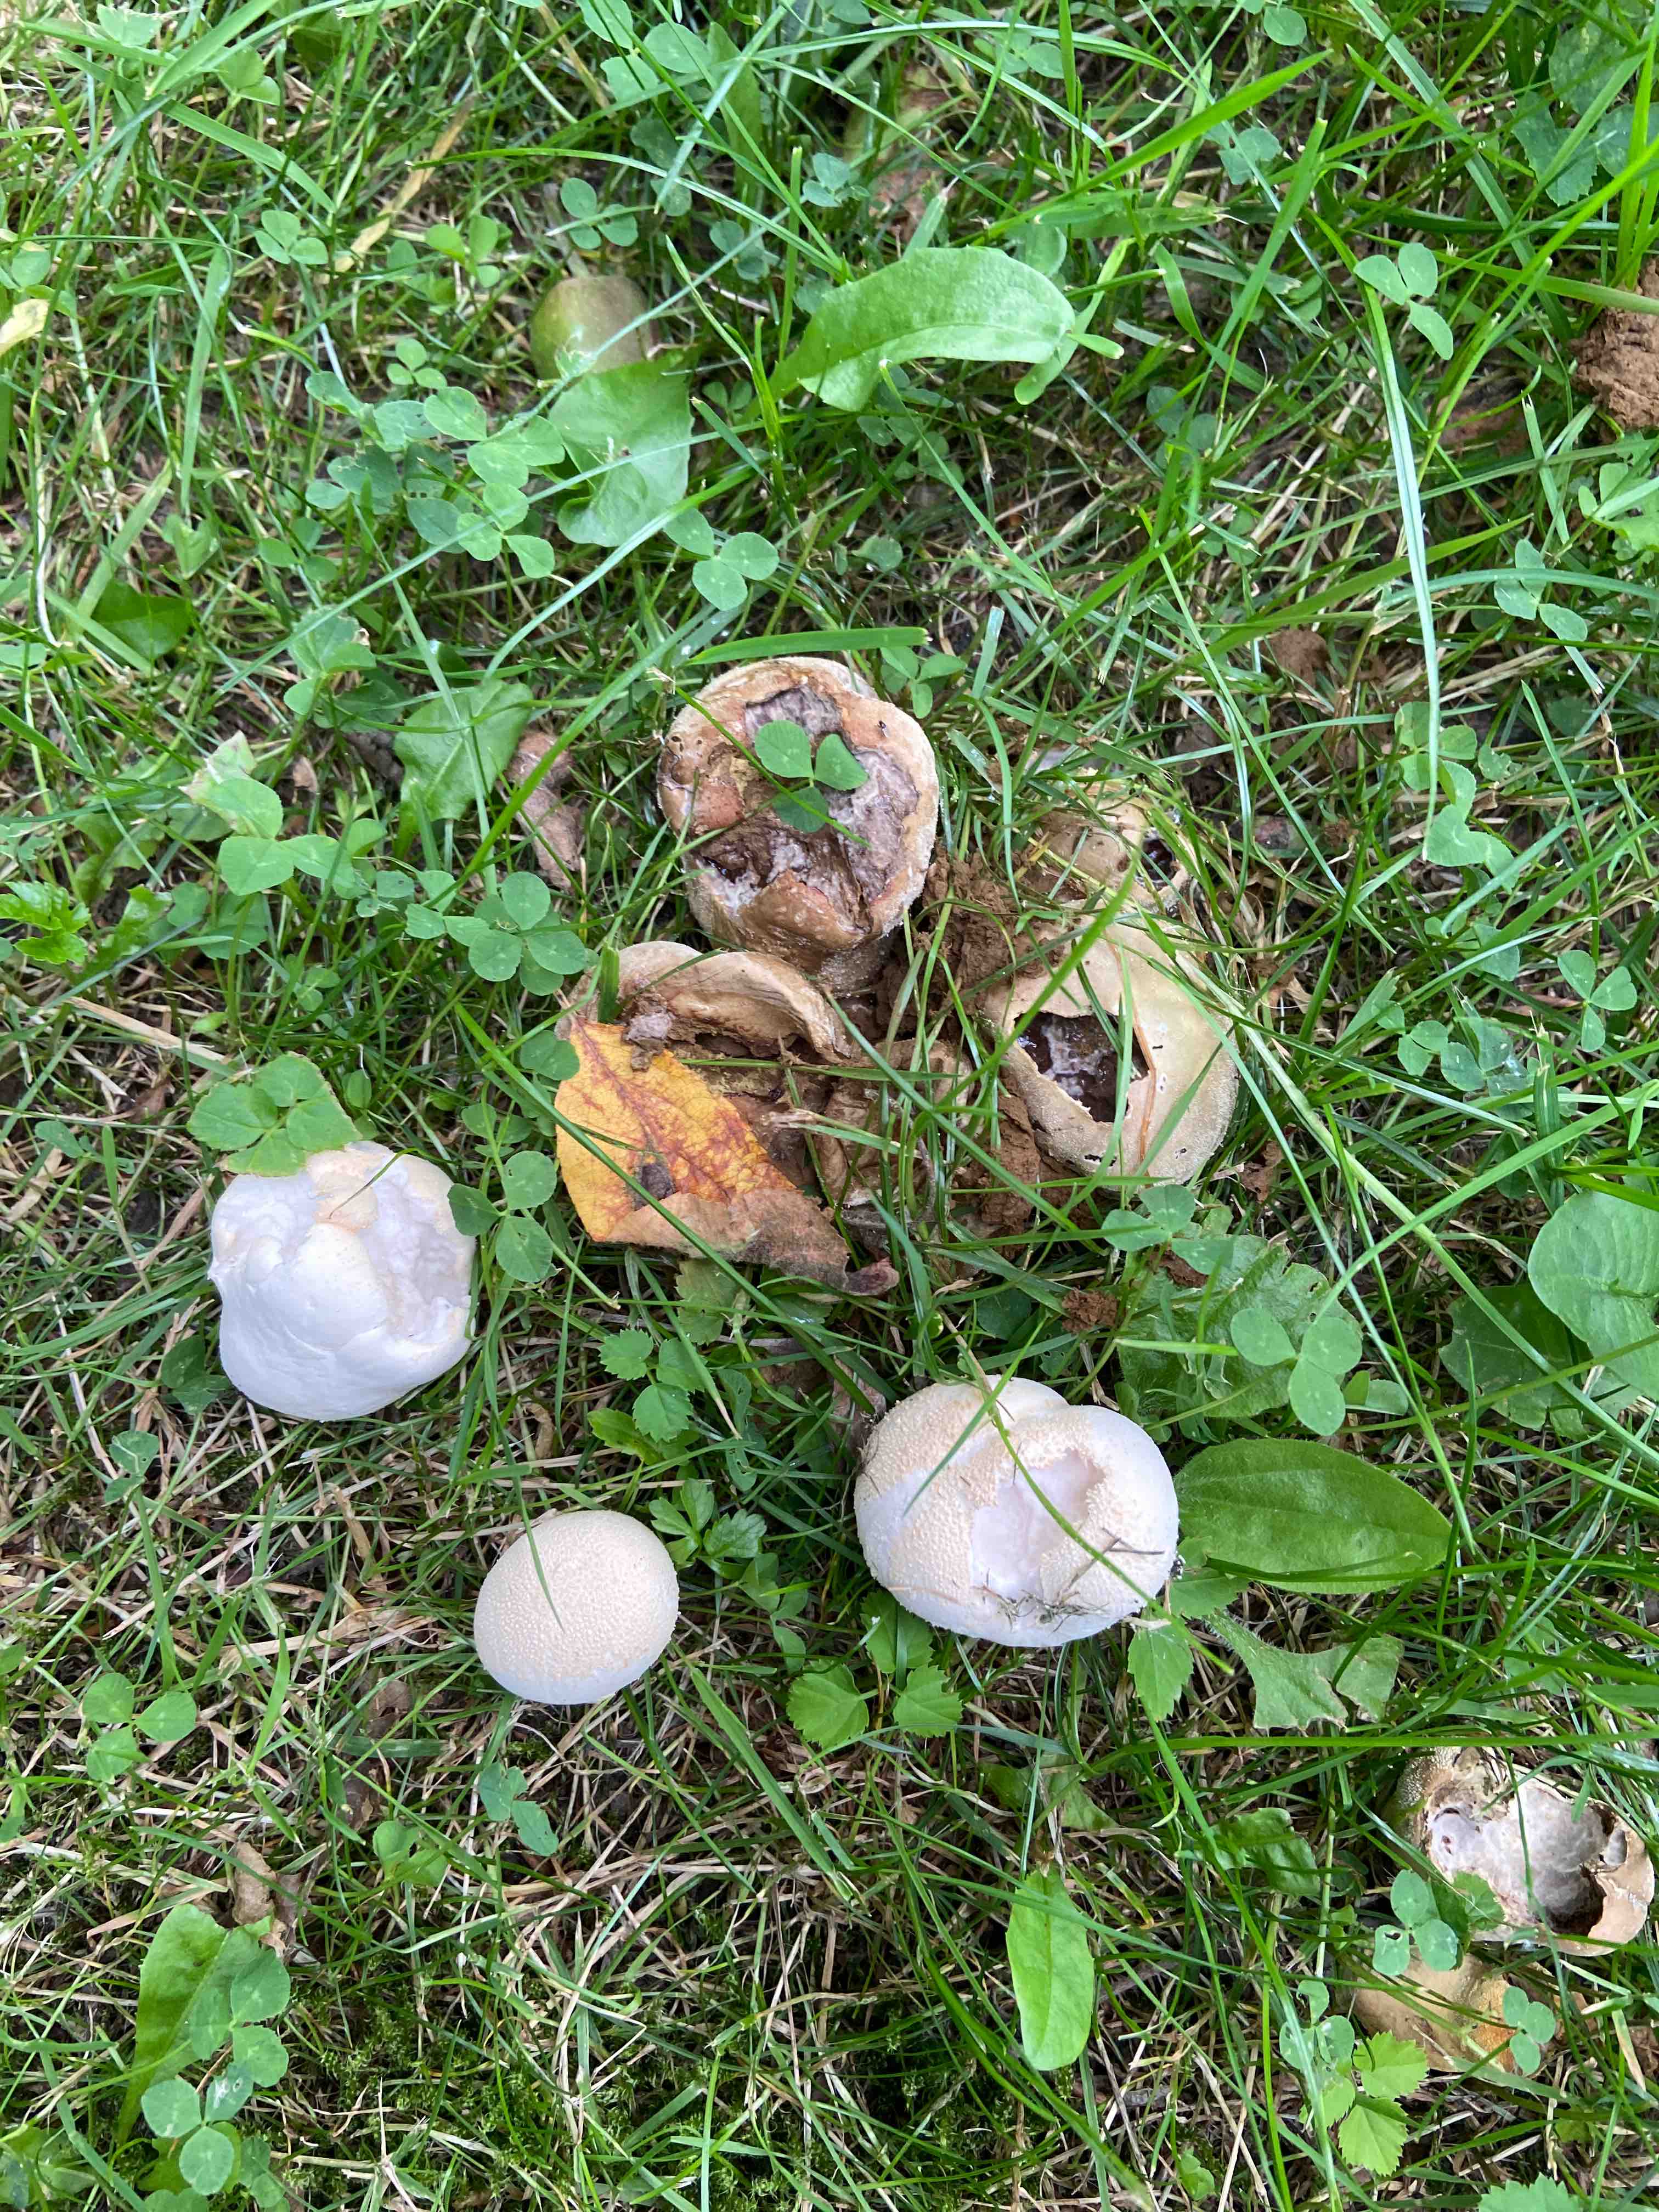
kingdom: Fungi
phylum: Basidiomycota
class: Agaricomycetes
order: Agaricales
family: Lycoperdaceae
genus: Lycoperdon
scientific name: Lycoperdon pratense
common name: flad støvbold
